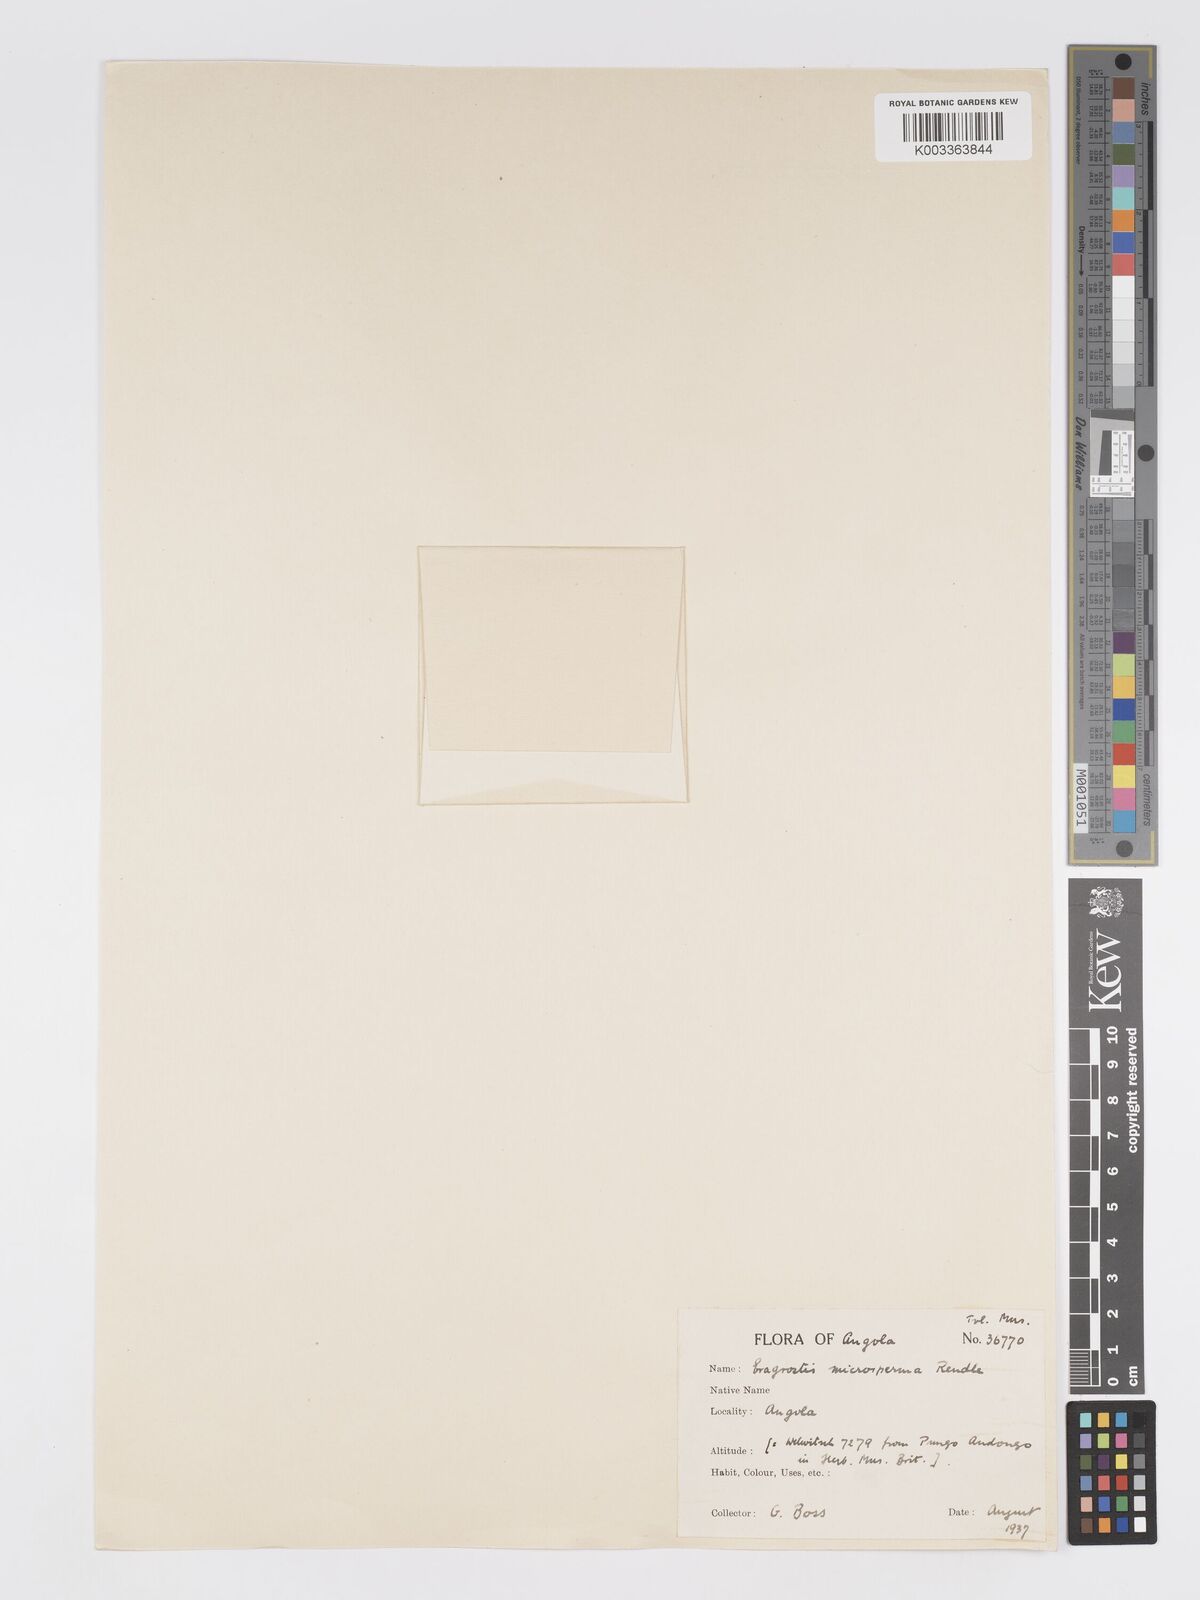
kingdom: Plantae
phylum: Tracheophyta
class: Liliopsida
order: Poales
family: Poaceae
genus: Eragrostis
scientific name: Eragrostis microsperma
